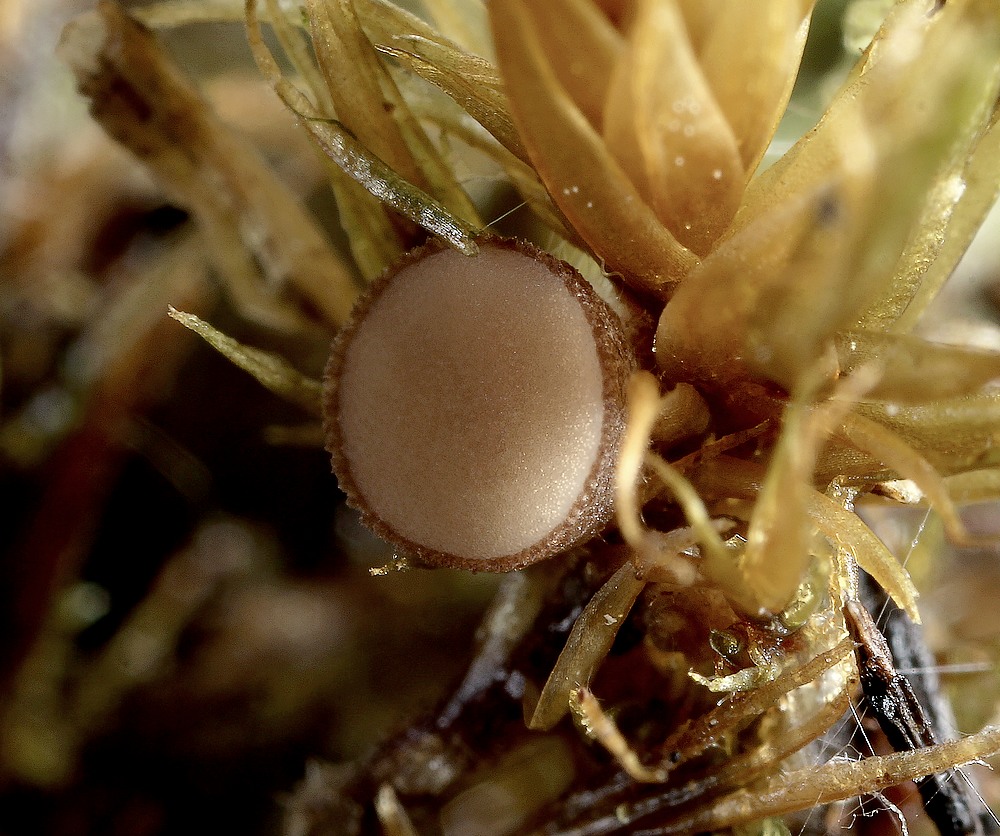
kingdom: Fungi
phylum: Ascomycota
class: Pezizomycetes
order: Pezizales
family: Pezizaceae
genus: Peziza
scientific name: Peziza perparva
